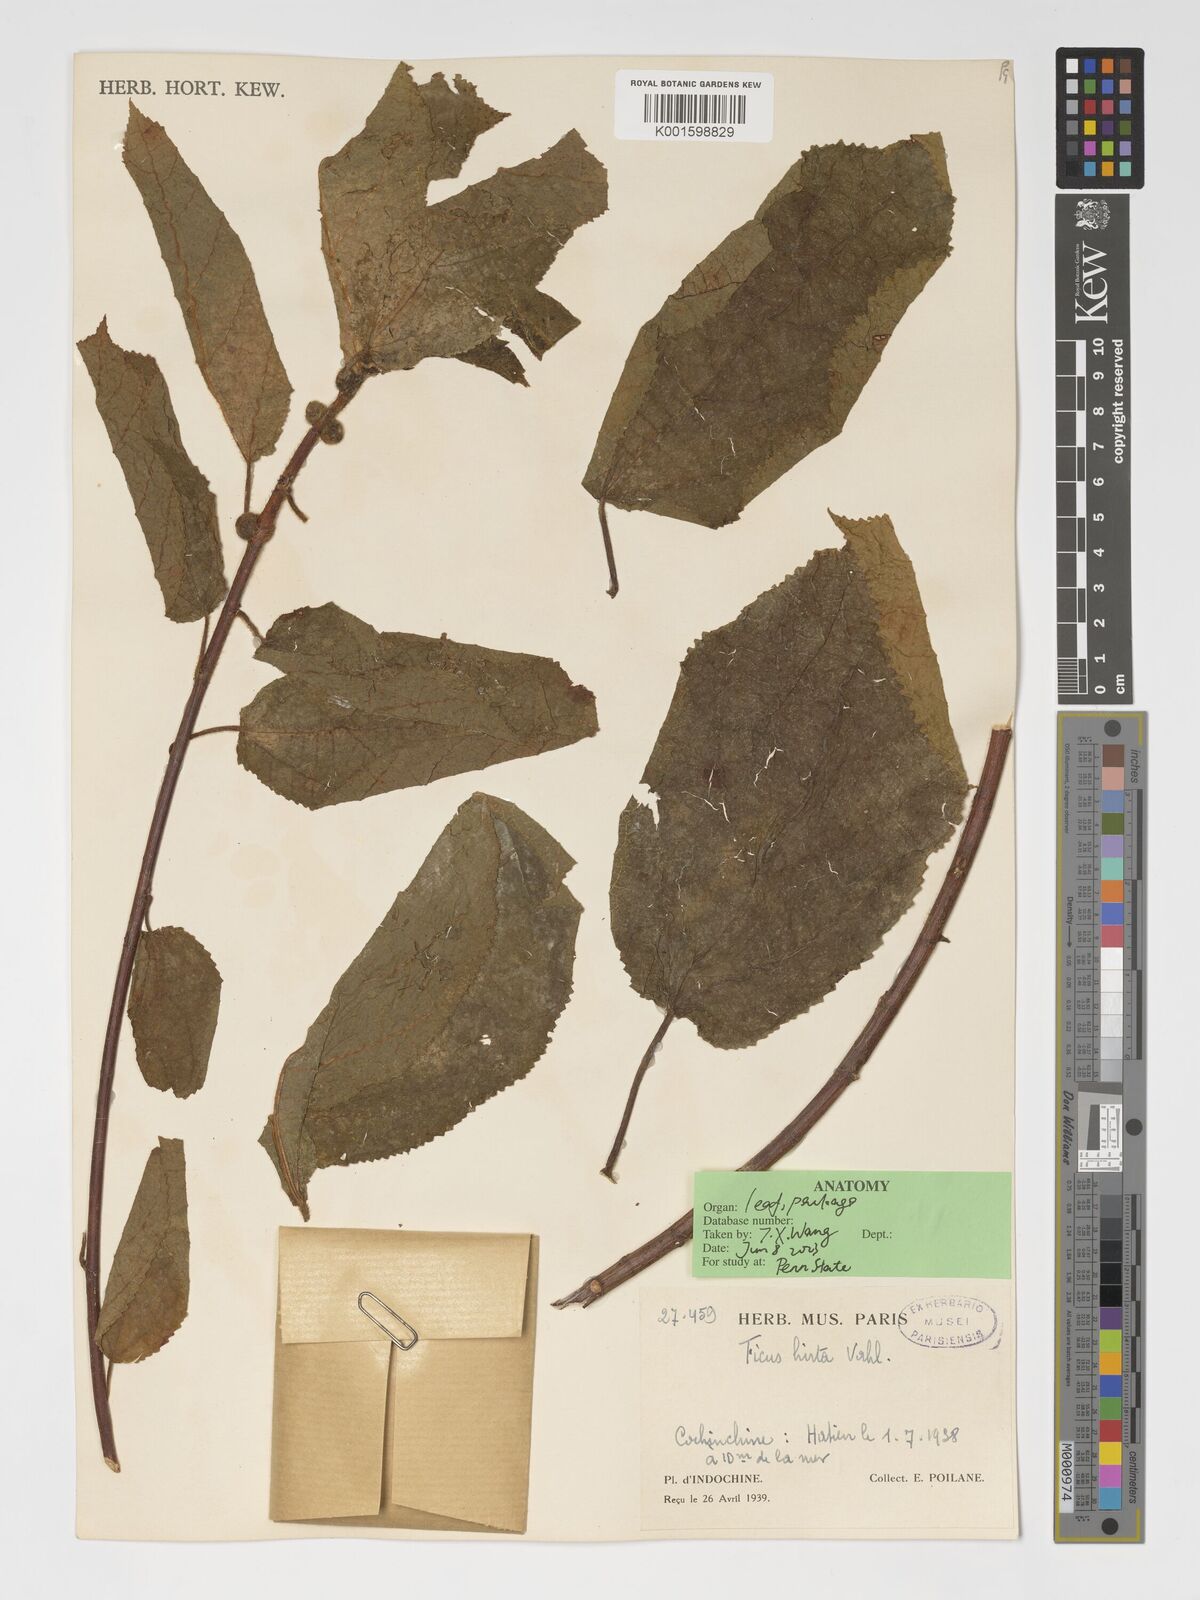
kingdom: Plantae
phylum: Tracheophyta
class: Magnoliopsida
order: Rosales
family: Moraceae
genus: Ficus
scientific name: Ficus simplicissima
